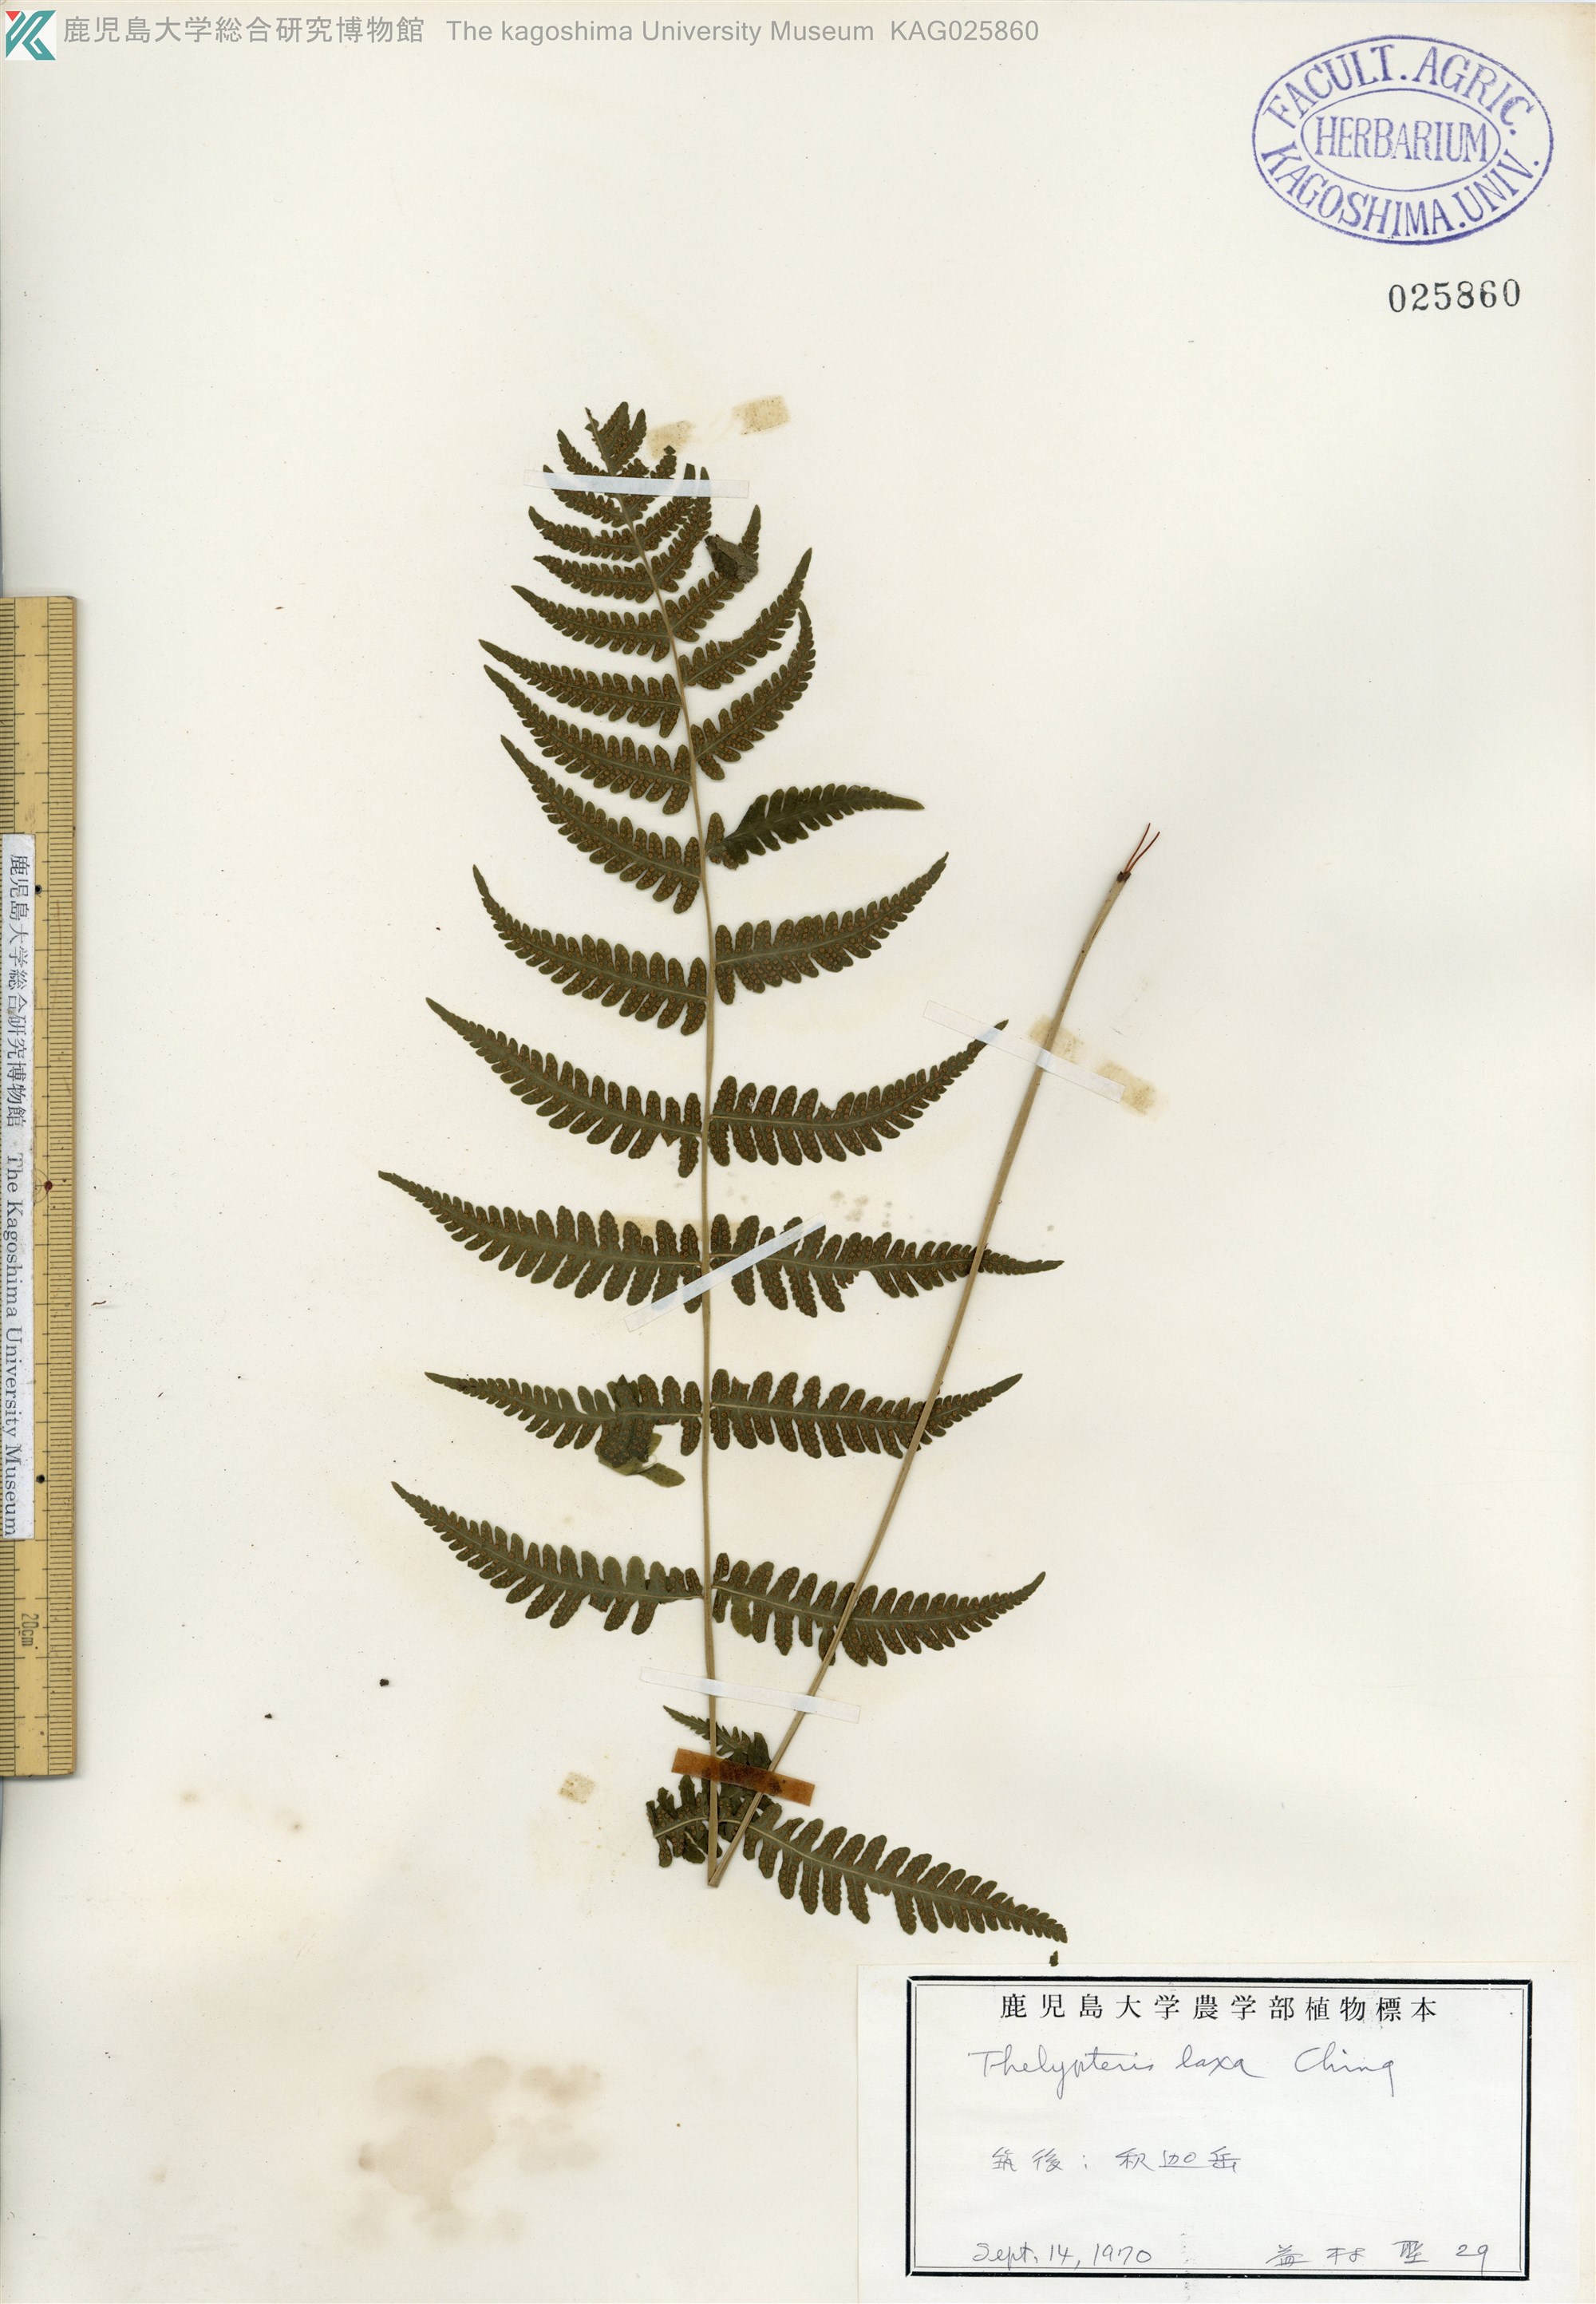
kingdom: Plantae
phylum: Tracheophyta
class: Polypodiopsida
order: Polypodiales
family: Thelypteridaceae
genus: Metathelypteris
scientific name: Metathelypteris laxa
